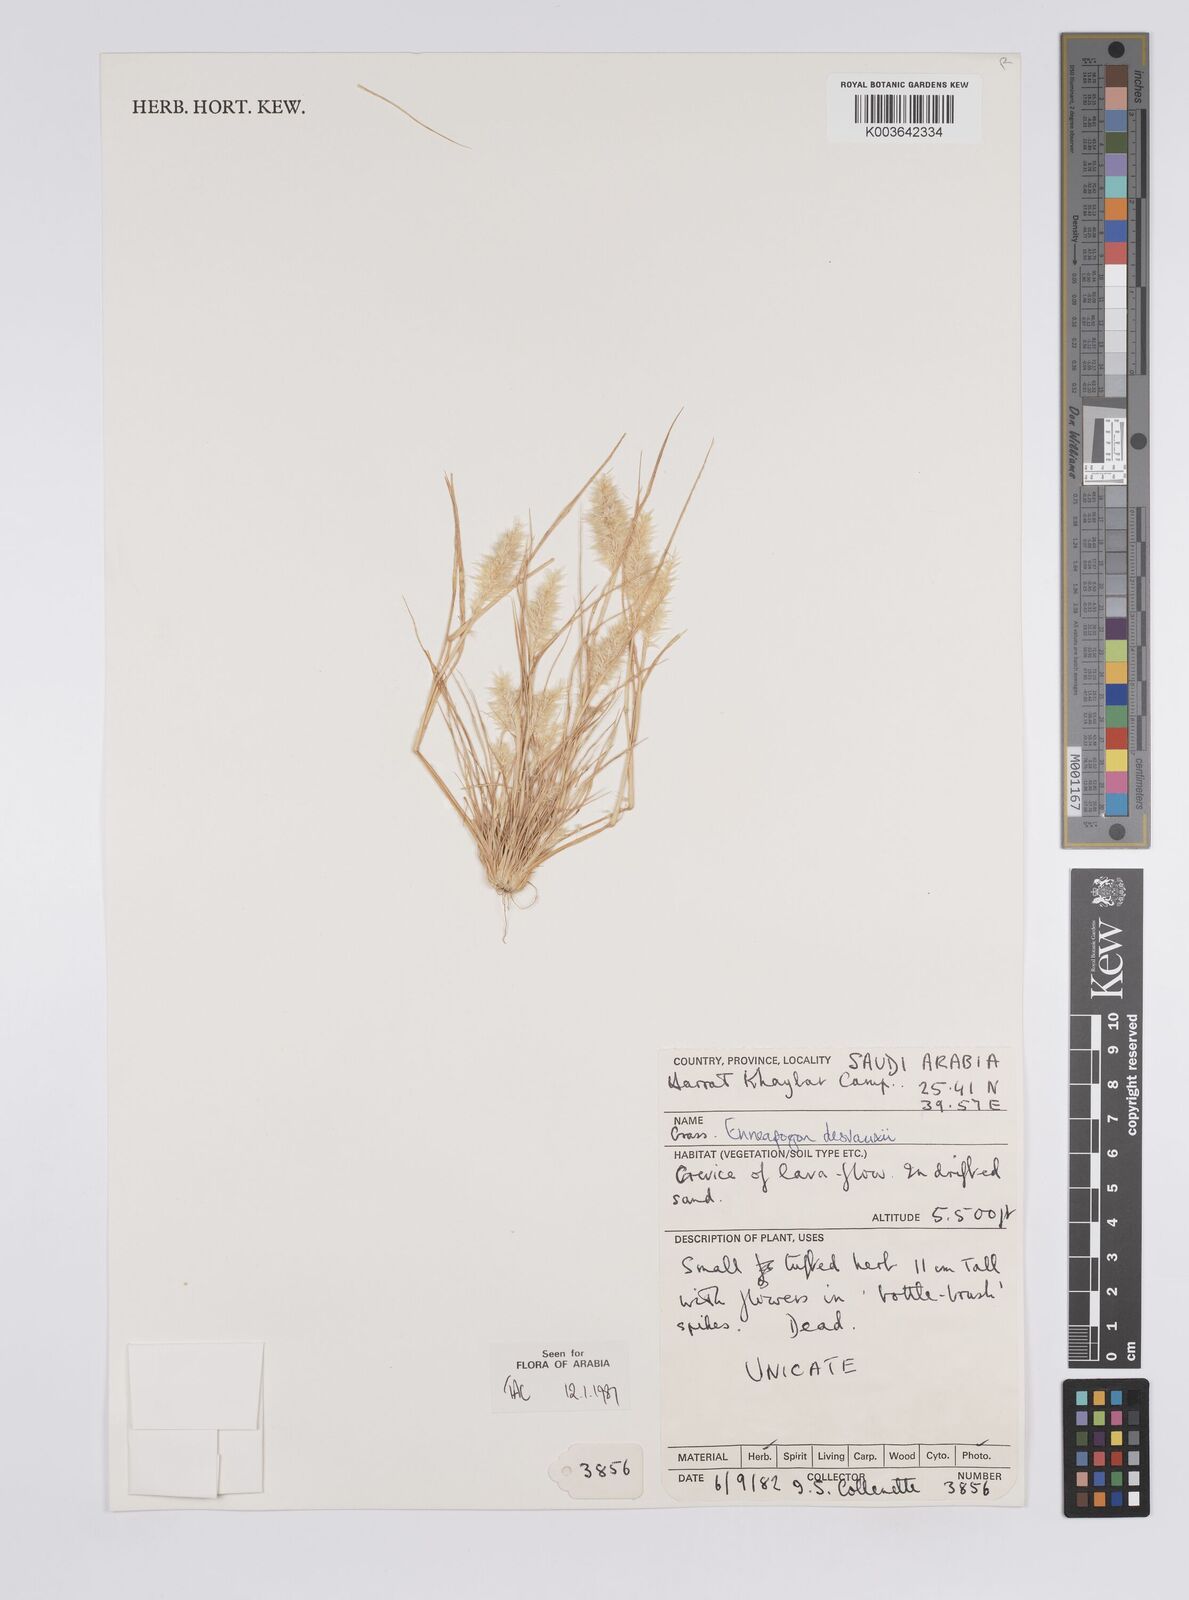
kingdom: Plantae
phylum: Tracheophyta
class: Liliopsida
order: Poales
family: Poaceae
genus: Enneapogon
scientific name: Enneapogon desvauxii
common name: Feather pappus grass
